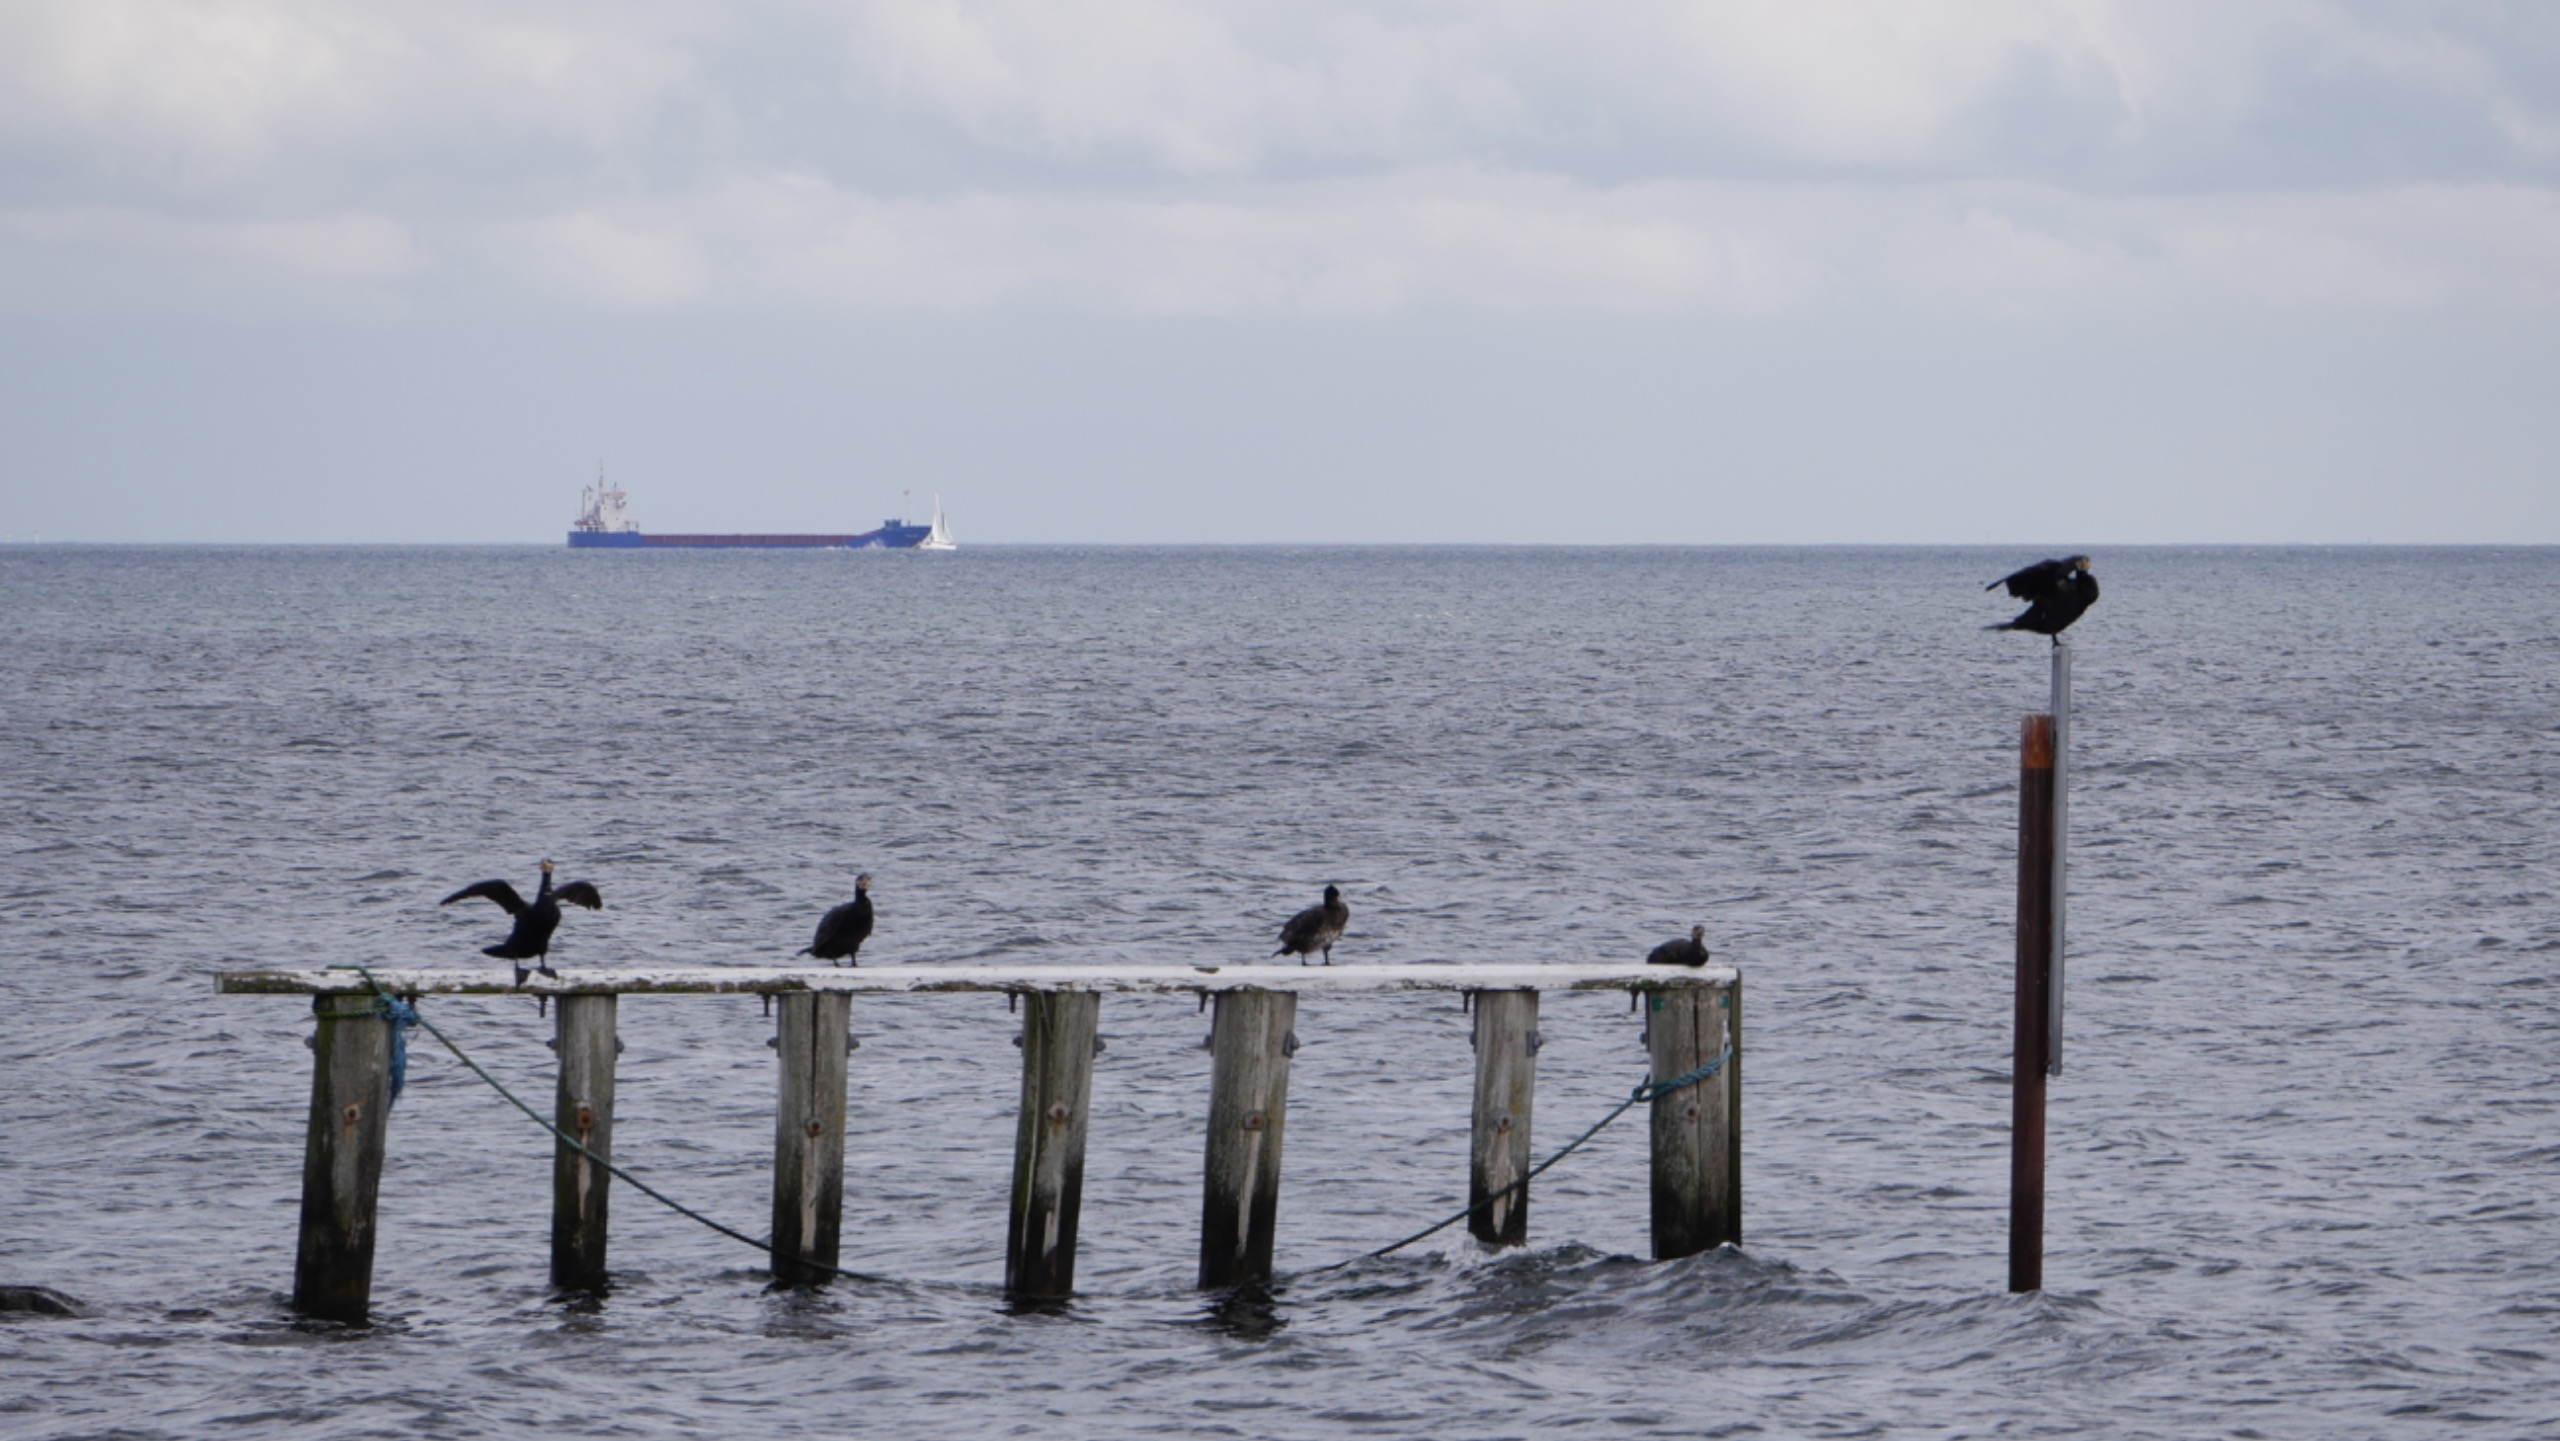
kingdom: Animalia
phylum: Chordata
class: Aves
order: Suliformes
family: Phalacrocoracidae
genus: Phalacrocorax
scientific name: Phalacrocorax carbo
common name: Skarv
